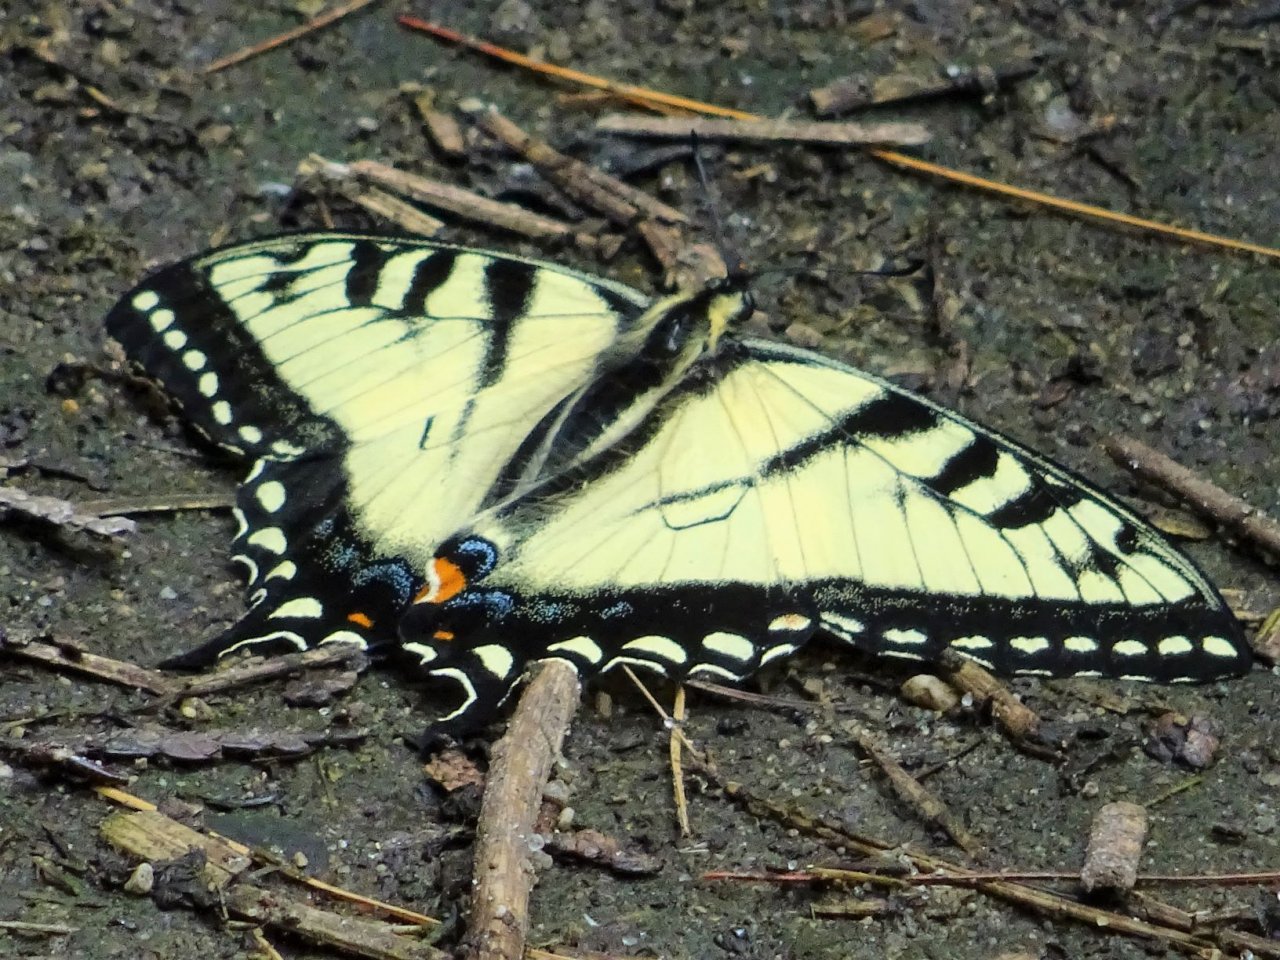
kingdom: Animalia
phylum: Arthropoda
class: Insecta
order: Lepidoptera
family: Papilionidae
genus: Pterourus
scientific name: Pterourus glaucus
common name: Eastern Tiger Swallowtail
